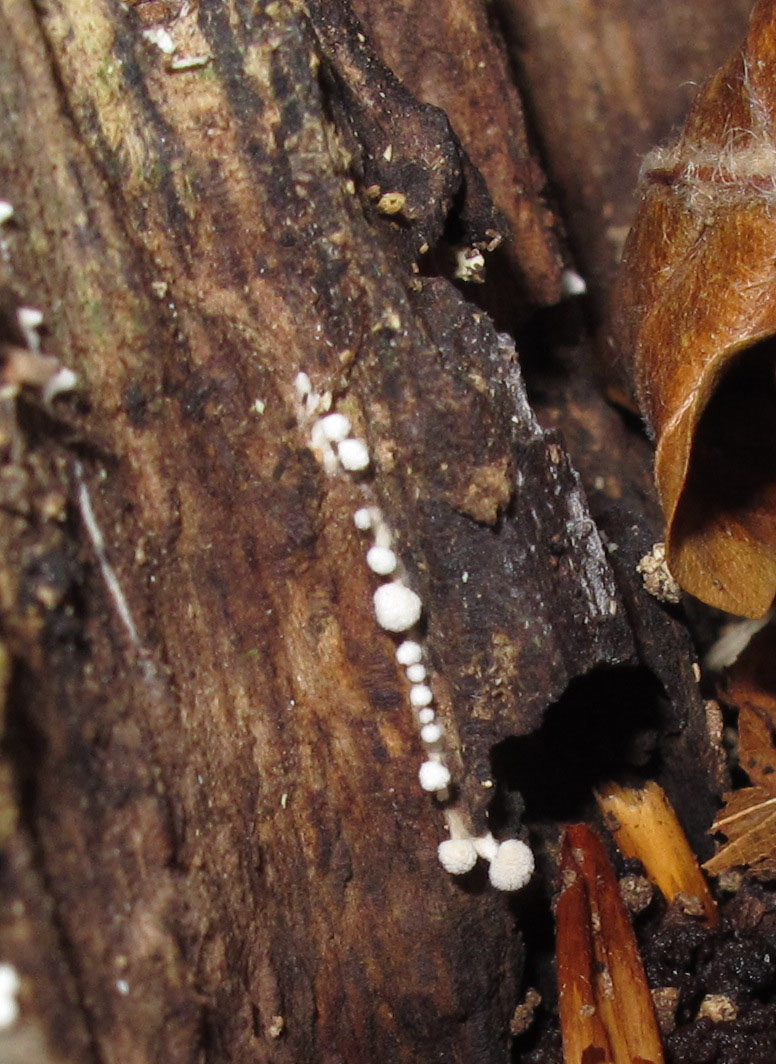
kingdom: Fungi
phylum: Basidiomycota
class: Atractiellomycetes
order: Atractiellales
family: Phleogenaceae
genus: Phleogena
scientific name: Phleogena faginea
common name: pudderkølle
